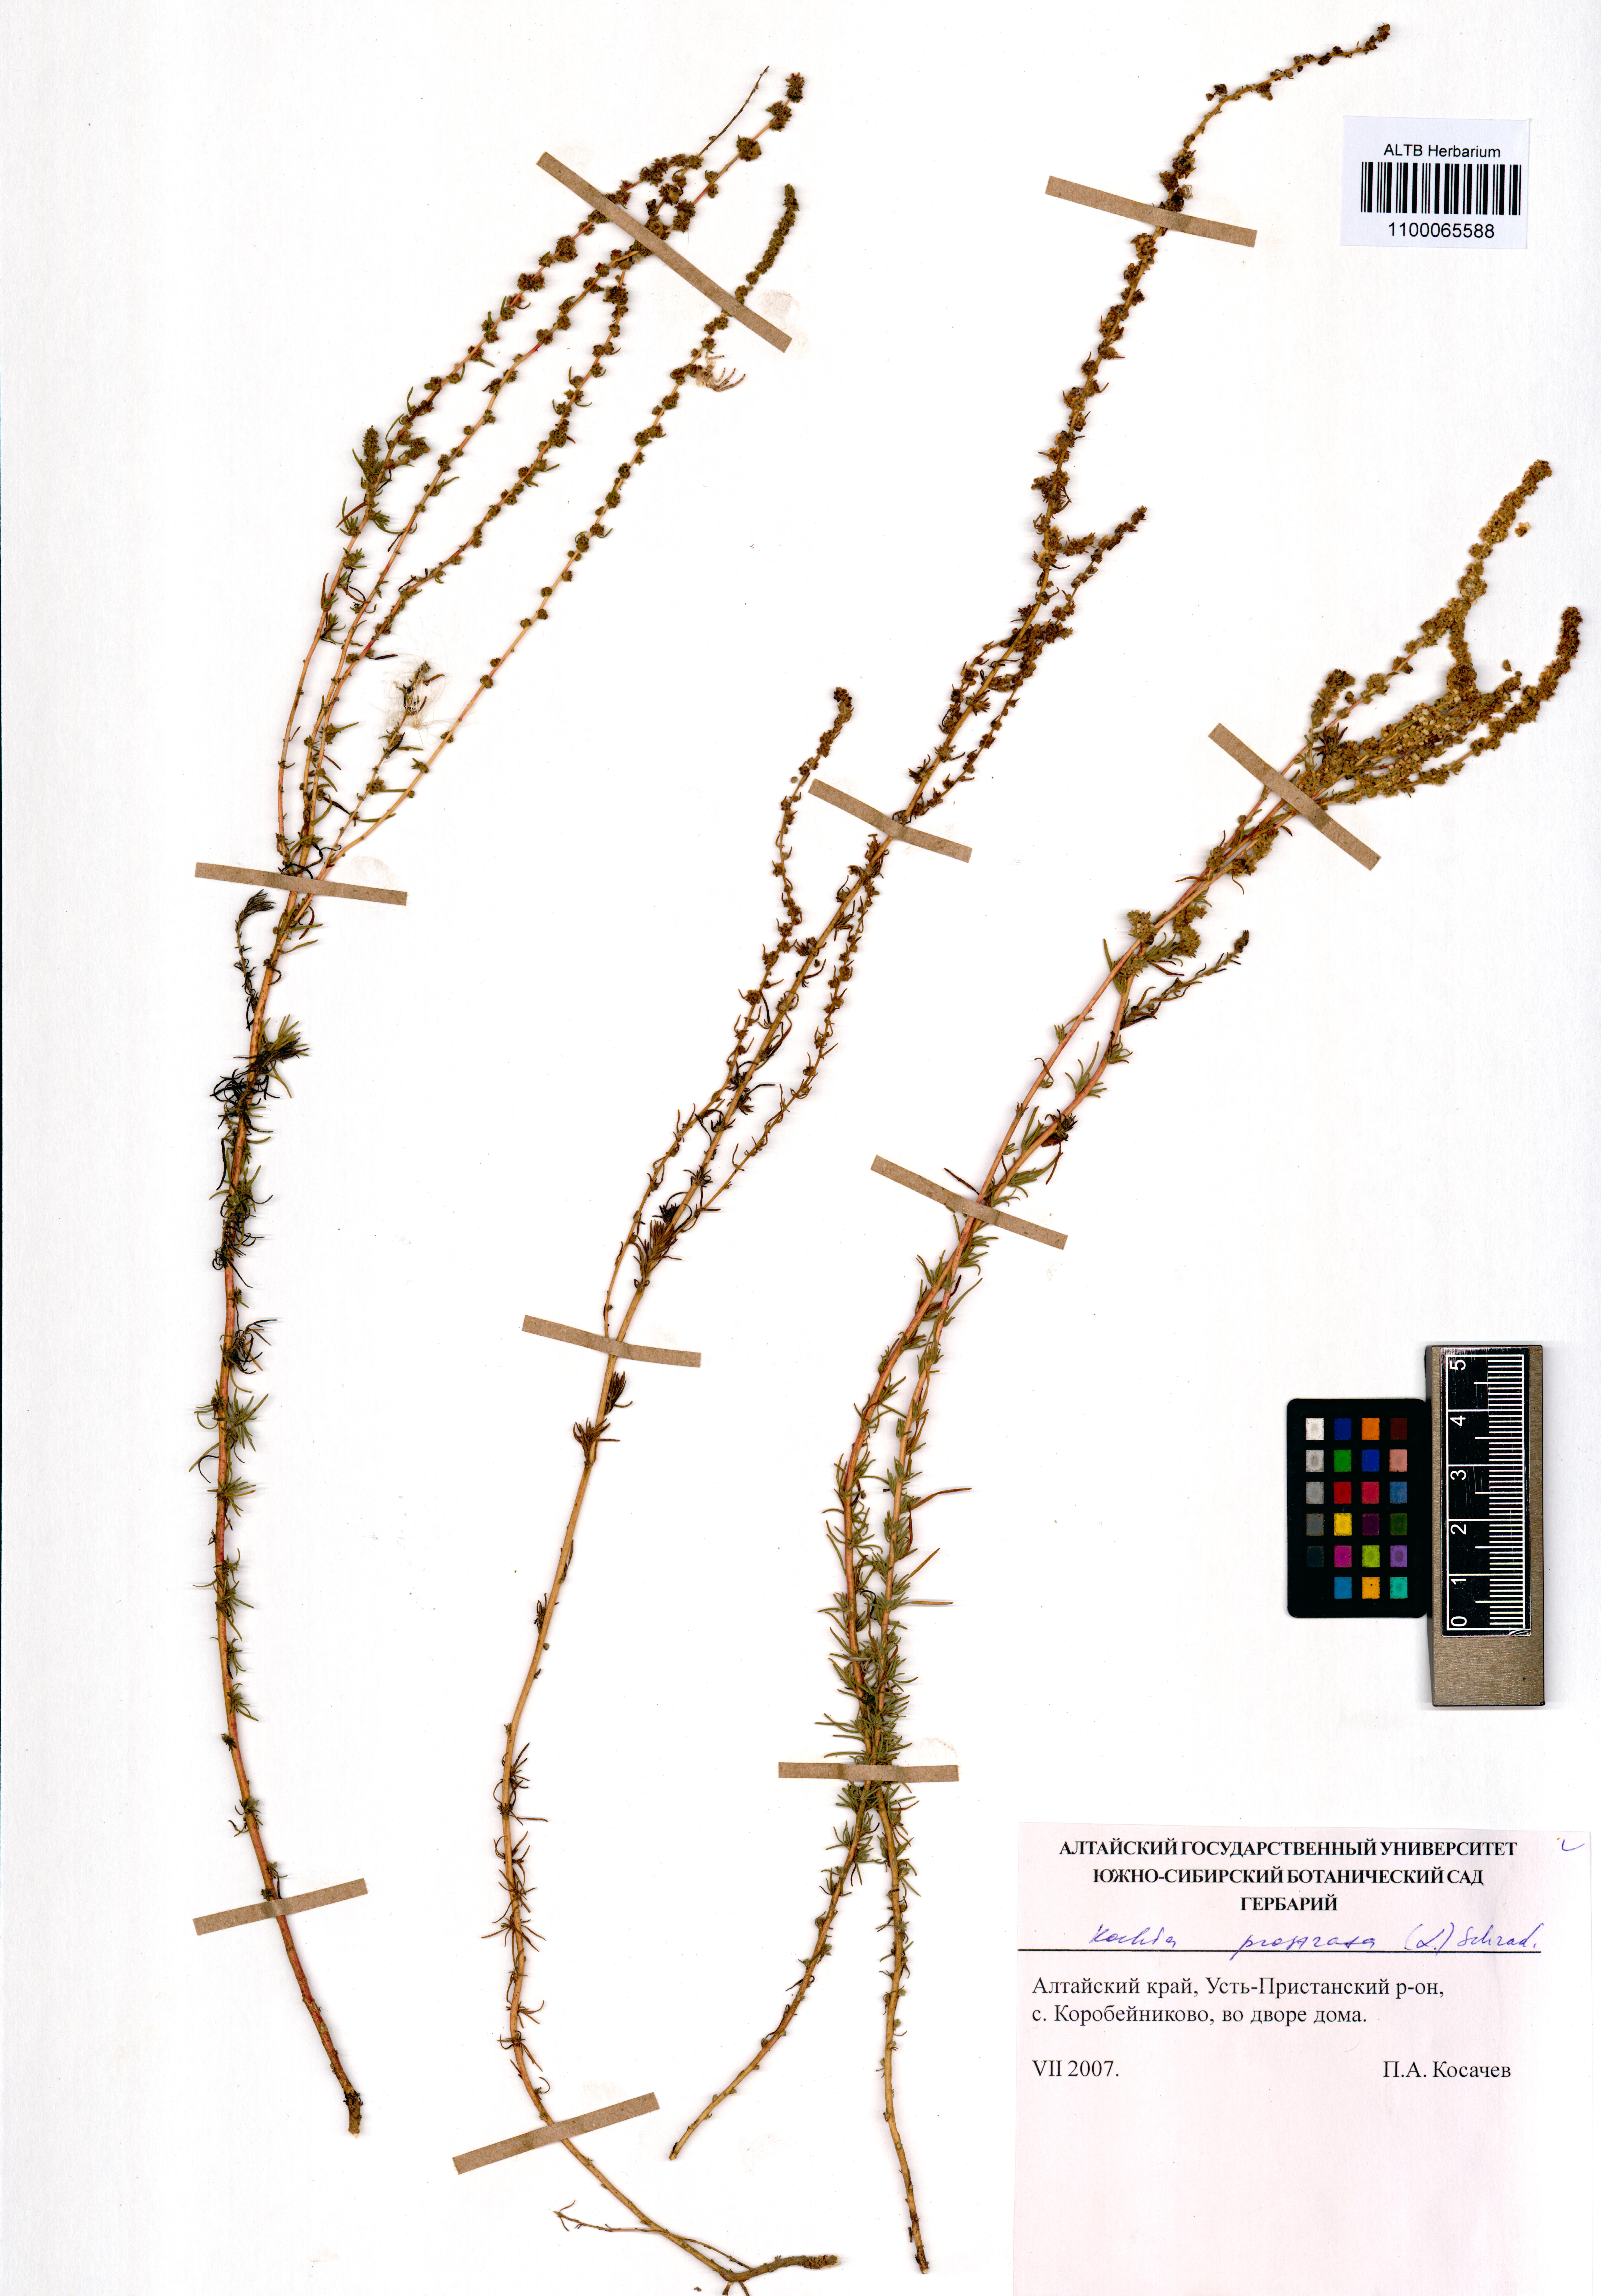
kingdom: Plantae
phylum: Tracheophyta
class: Magnoliopsida
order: Caryophyllales
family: Amaranthaceae
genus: Bassia
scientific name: Bassia prostrata
